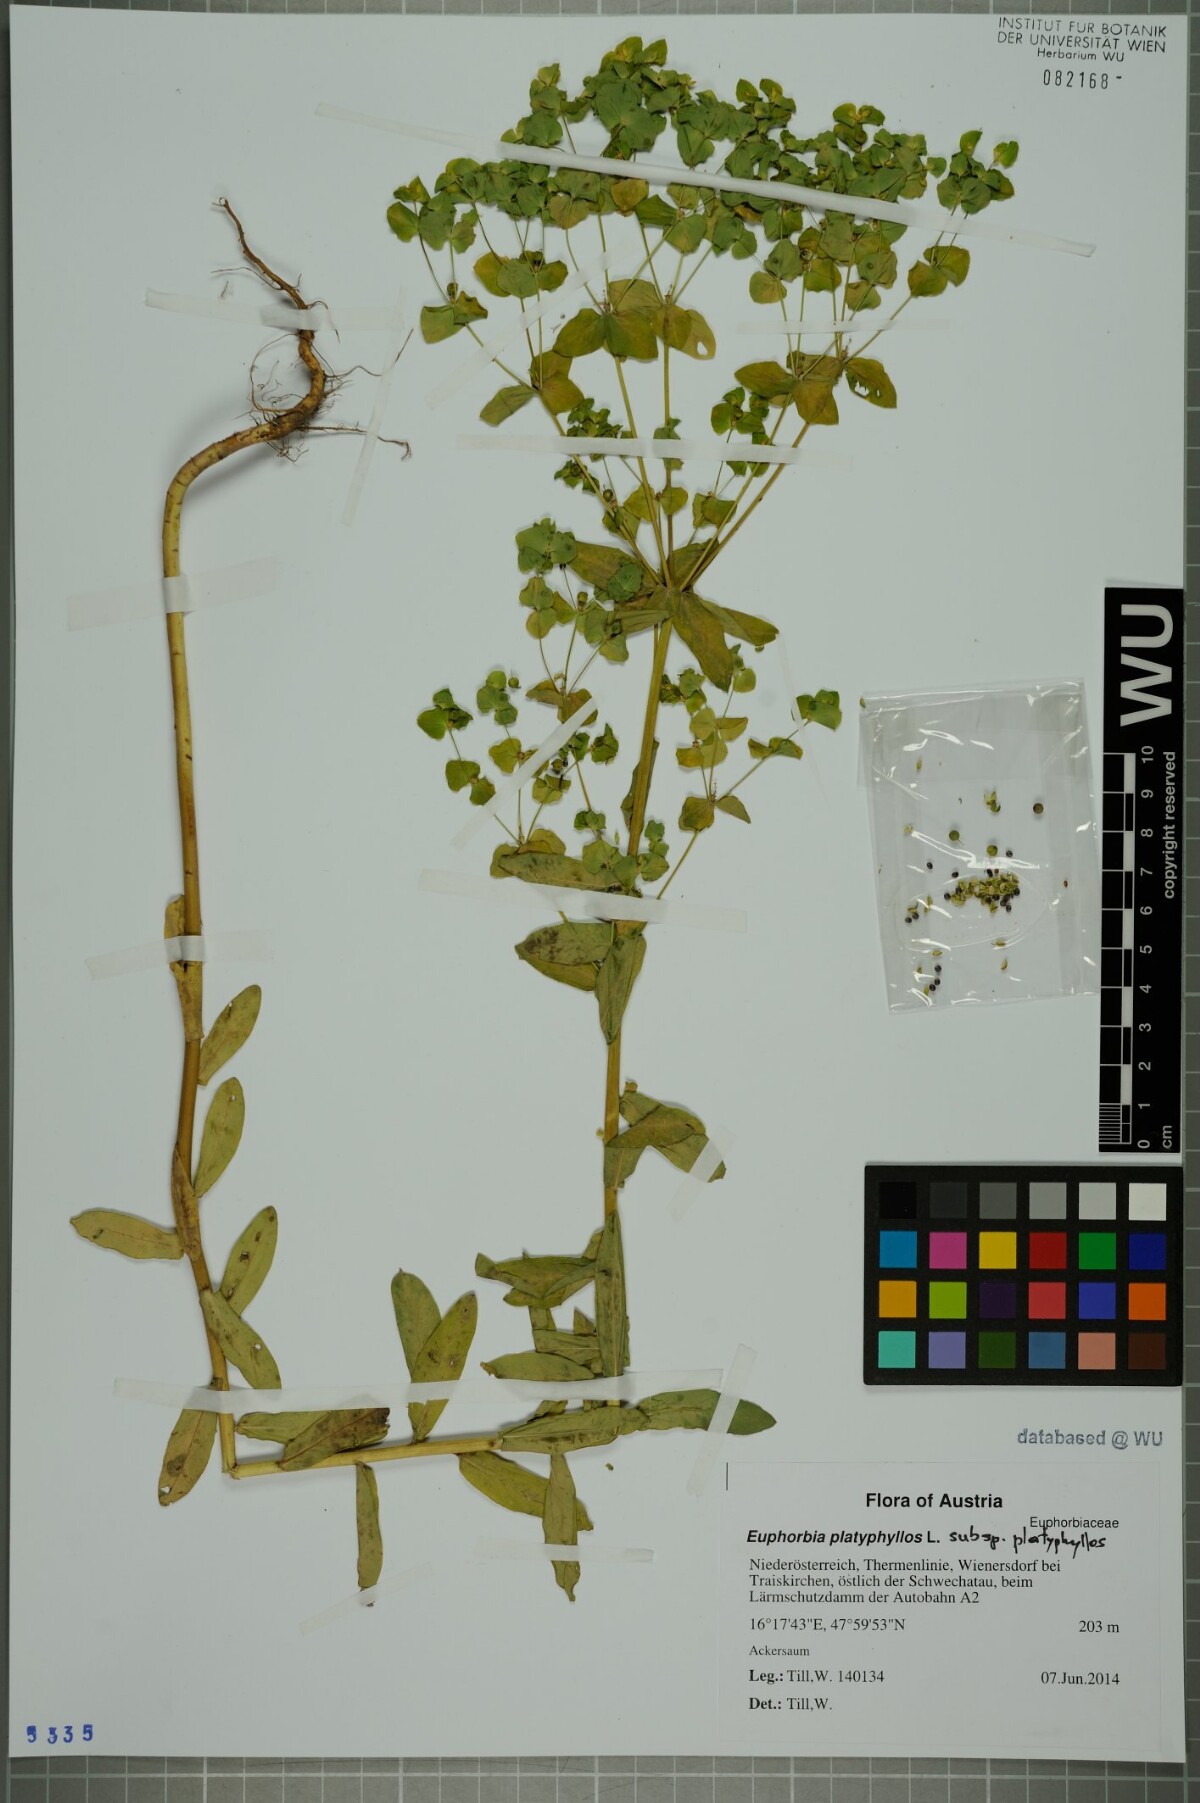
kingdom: Plantae
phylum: Tracheophyta
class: Magnoliopsida
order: Malpighiales
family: Euphorbiaceae
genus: Euphorbia
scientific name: Euphorbia platyphyllos
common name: Broad-leaved spurge
